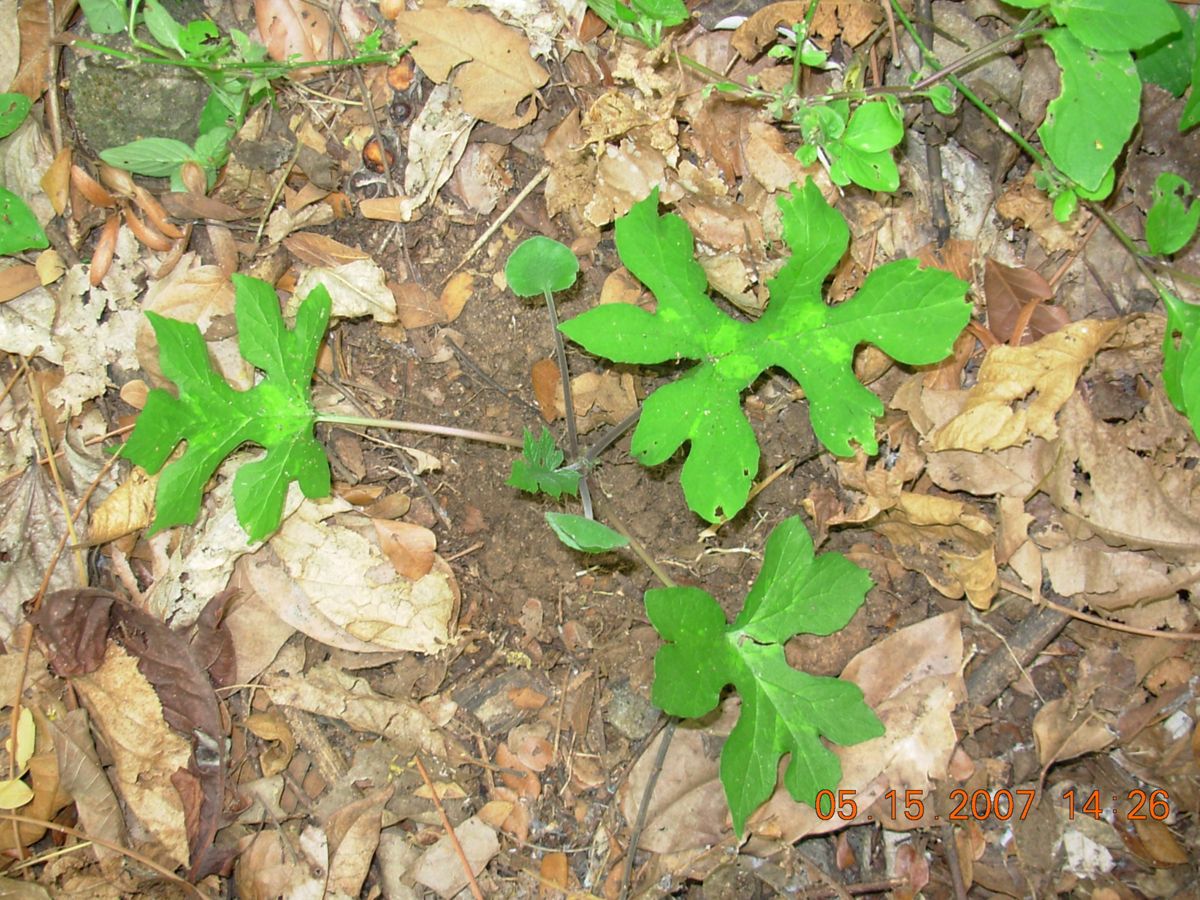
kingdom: Plantae
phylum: Tracheophyta
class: Magnoliopsida
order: Rosales
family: Moraceae
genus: Dorstenia
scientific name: Dorstenia drakena
